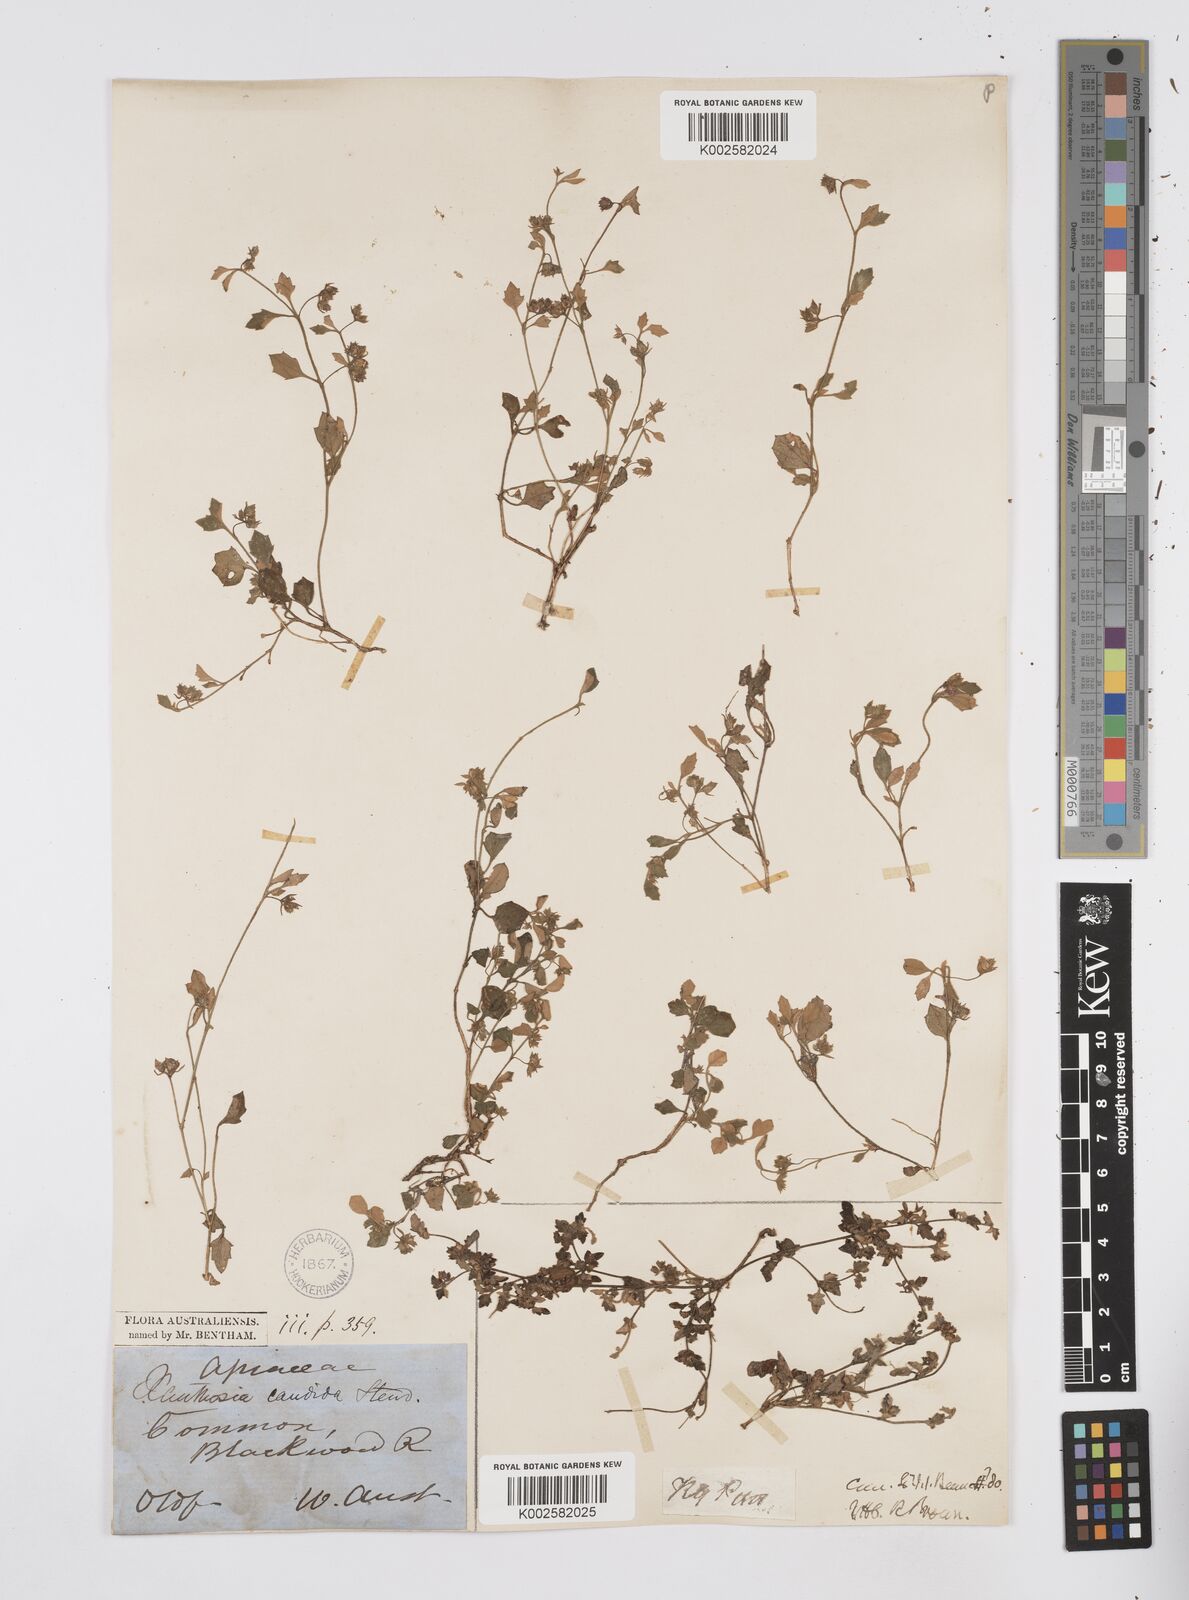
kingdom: Plantae
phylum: Tracheophyta
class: Magnoliopsida
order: Apiales
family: Apiaceae
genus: Xanthosia
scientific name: Xanthosia candida
